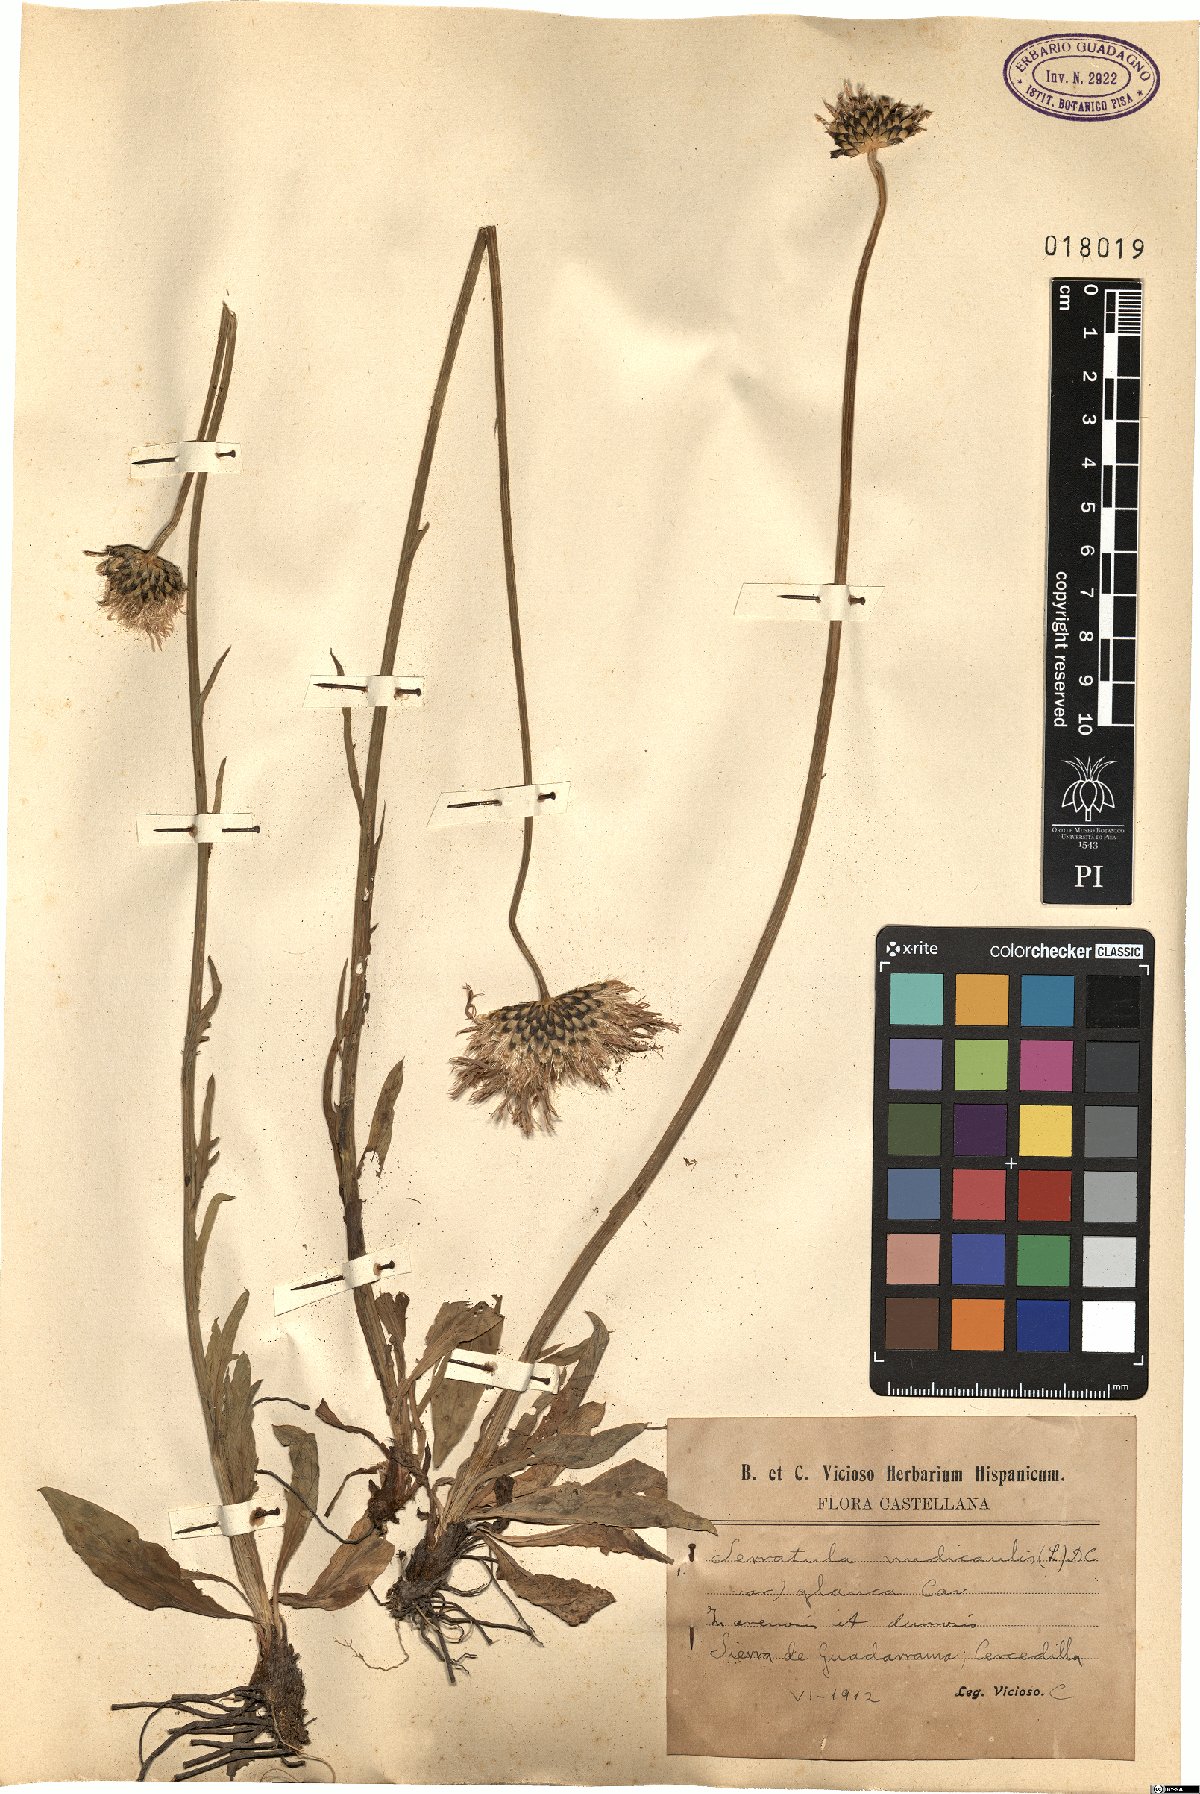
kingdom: Plantae
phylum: Tracheophyta
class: Magnoliopsida
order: Asterales
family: Asteraceae
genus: Klasea
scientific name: Klasea nudicaulis
